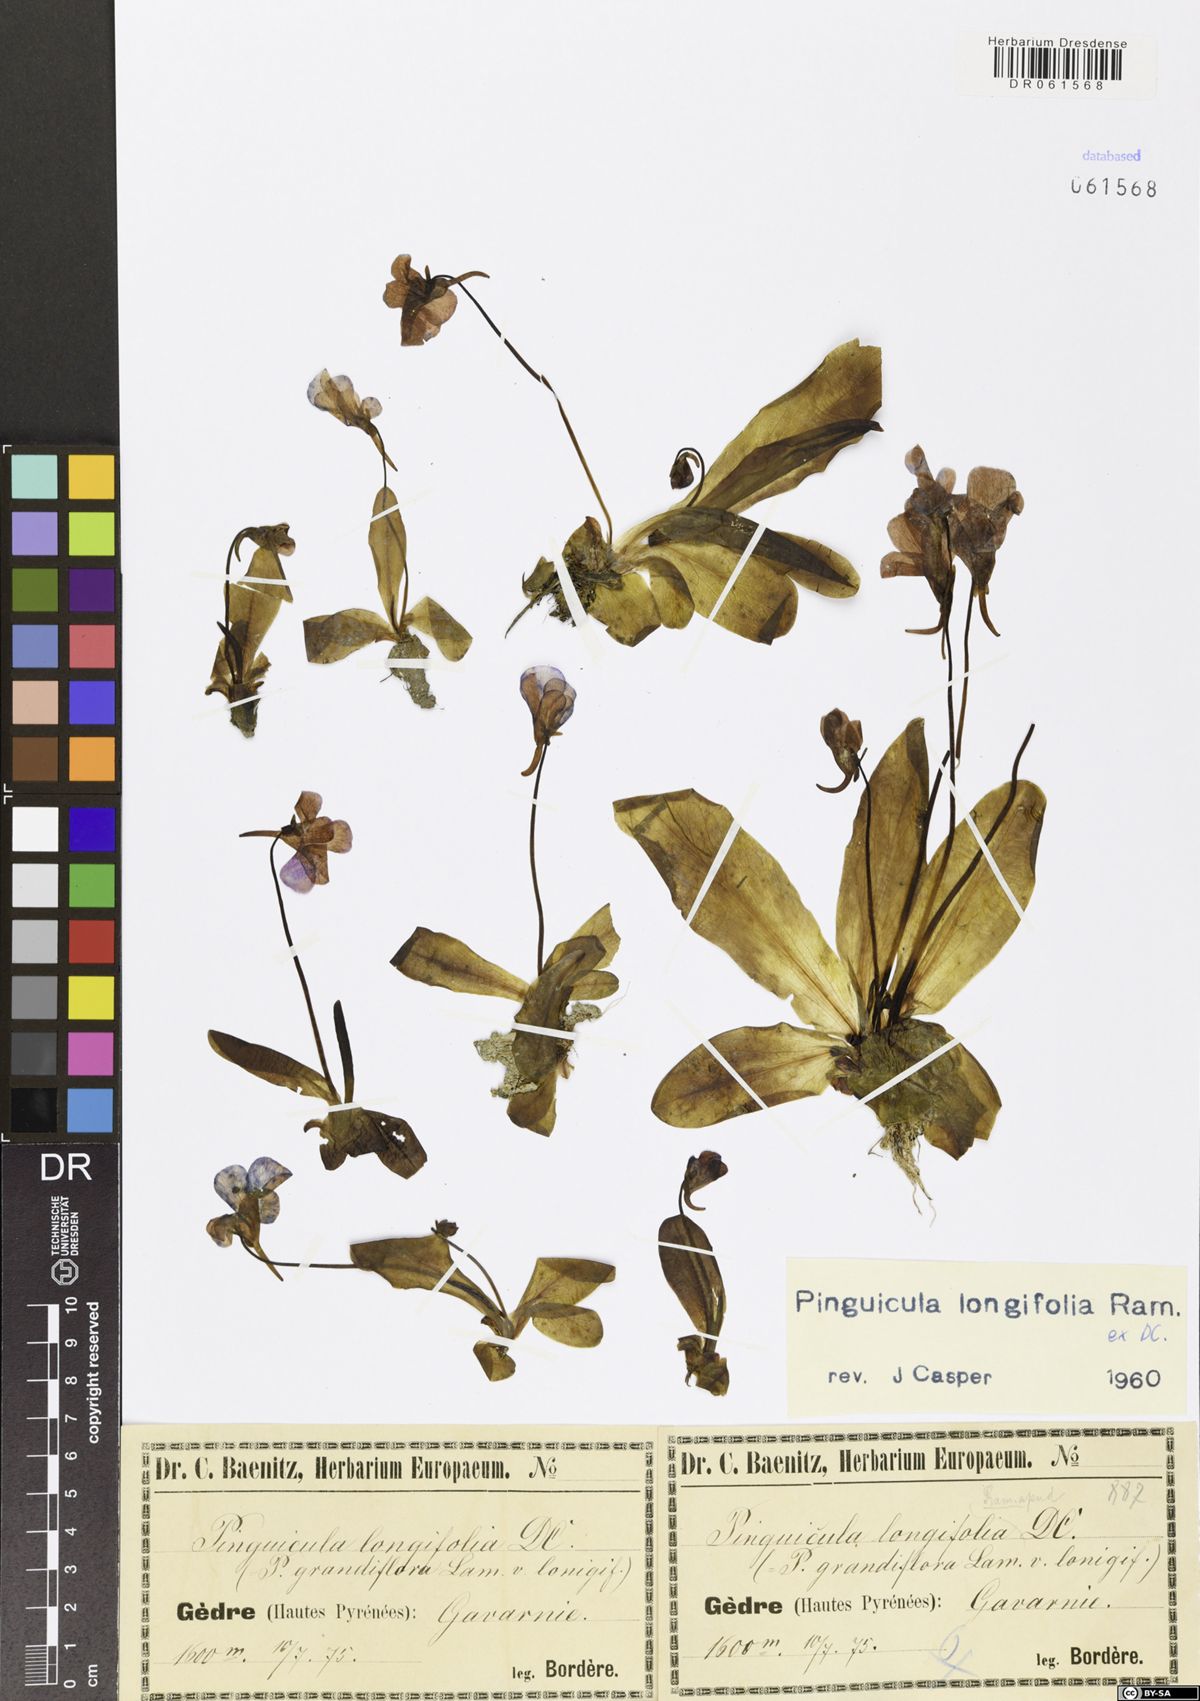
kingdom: Plantae
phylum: Tracheophyta
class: Magnoliopsida
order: Lamiales
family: Lentibulariaceae
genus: Pinguicula
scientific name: Pinguicula longifolia
